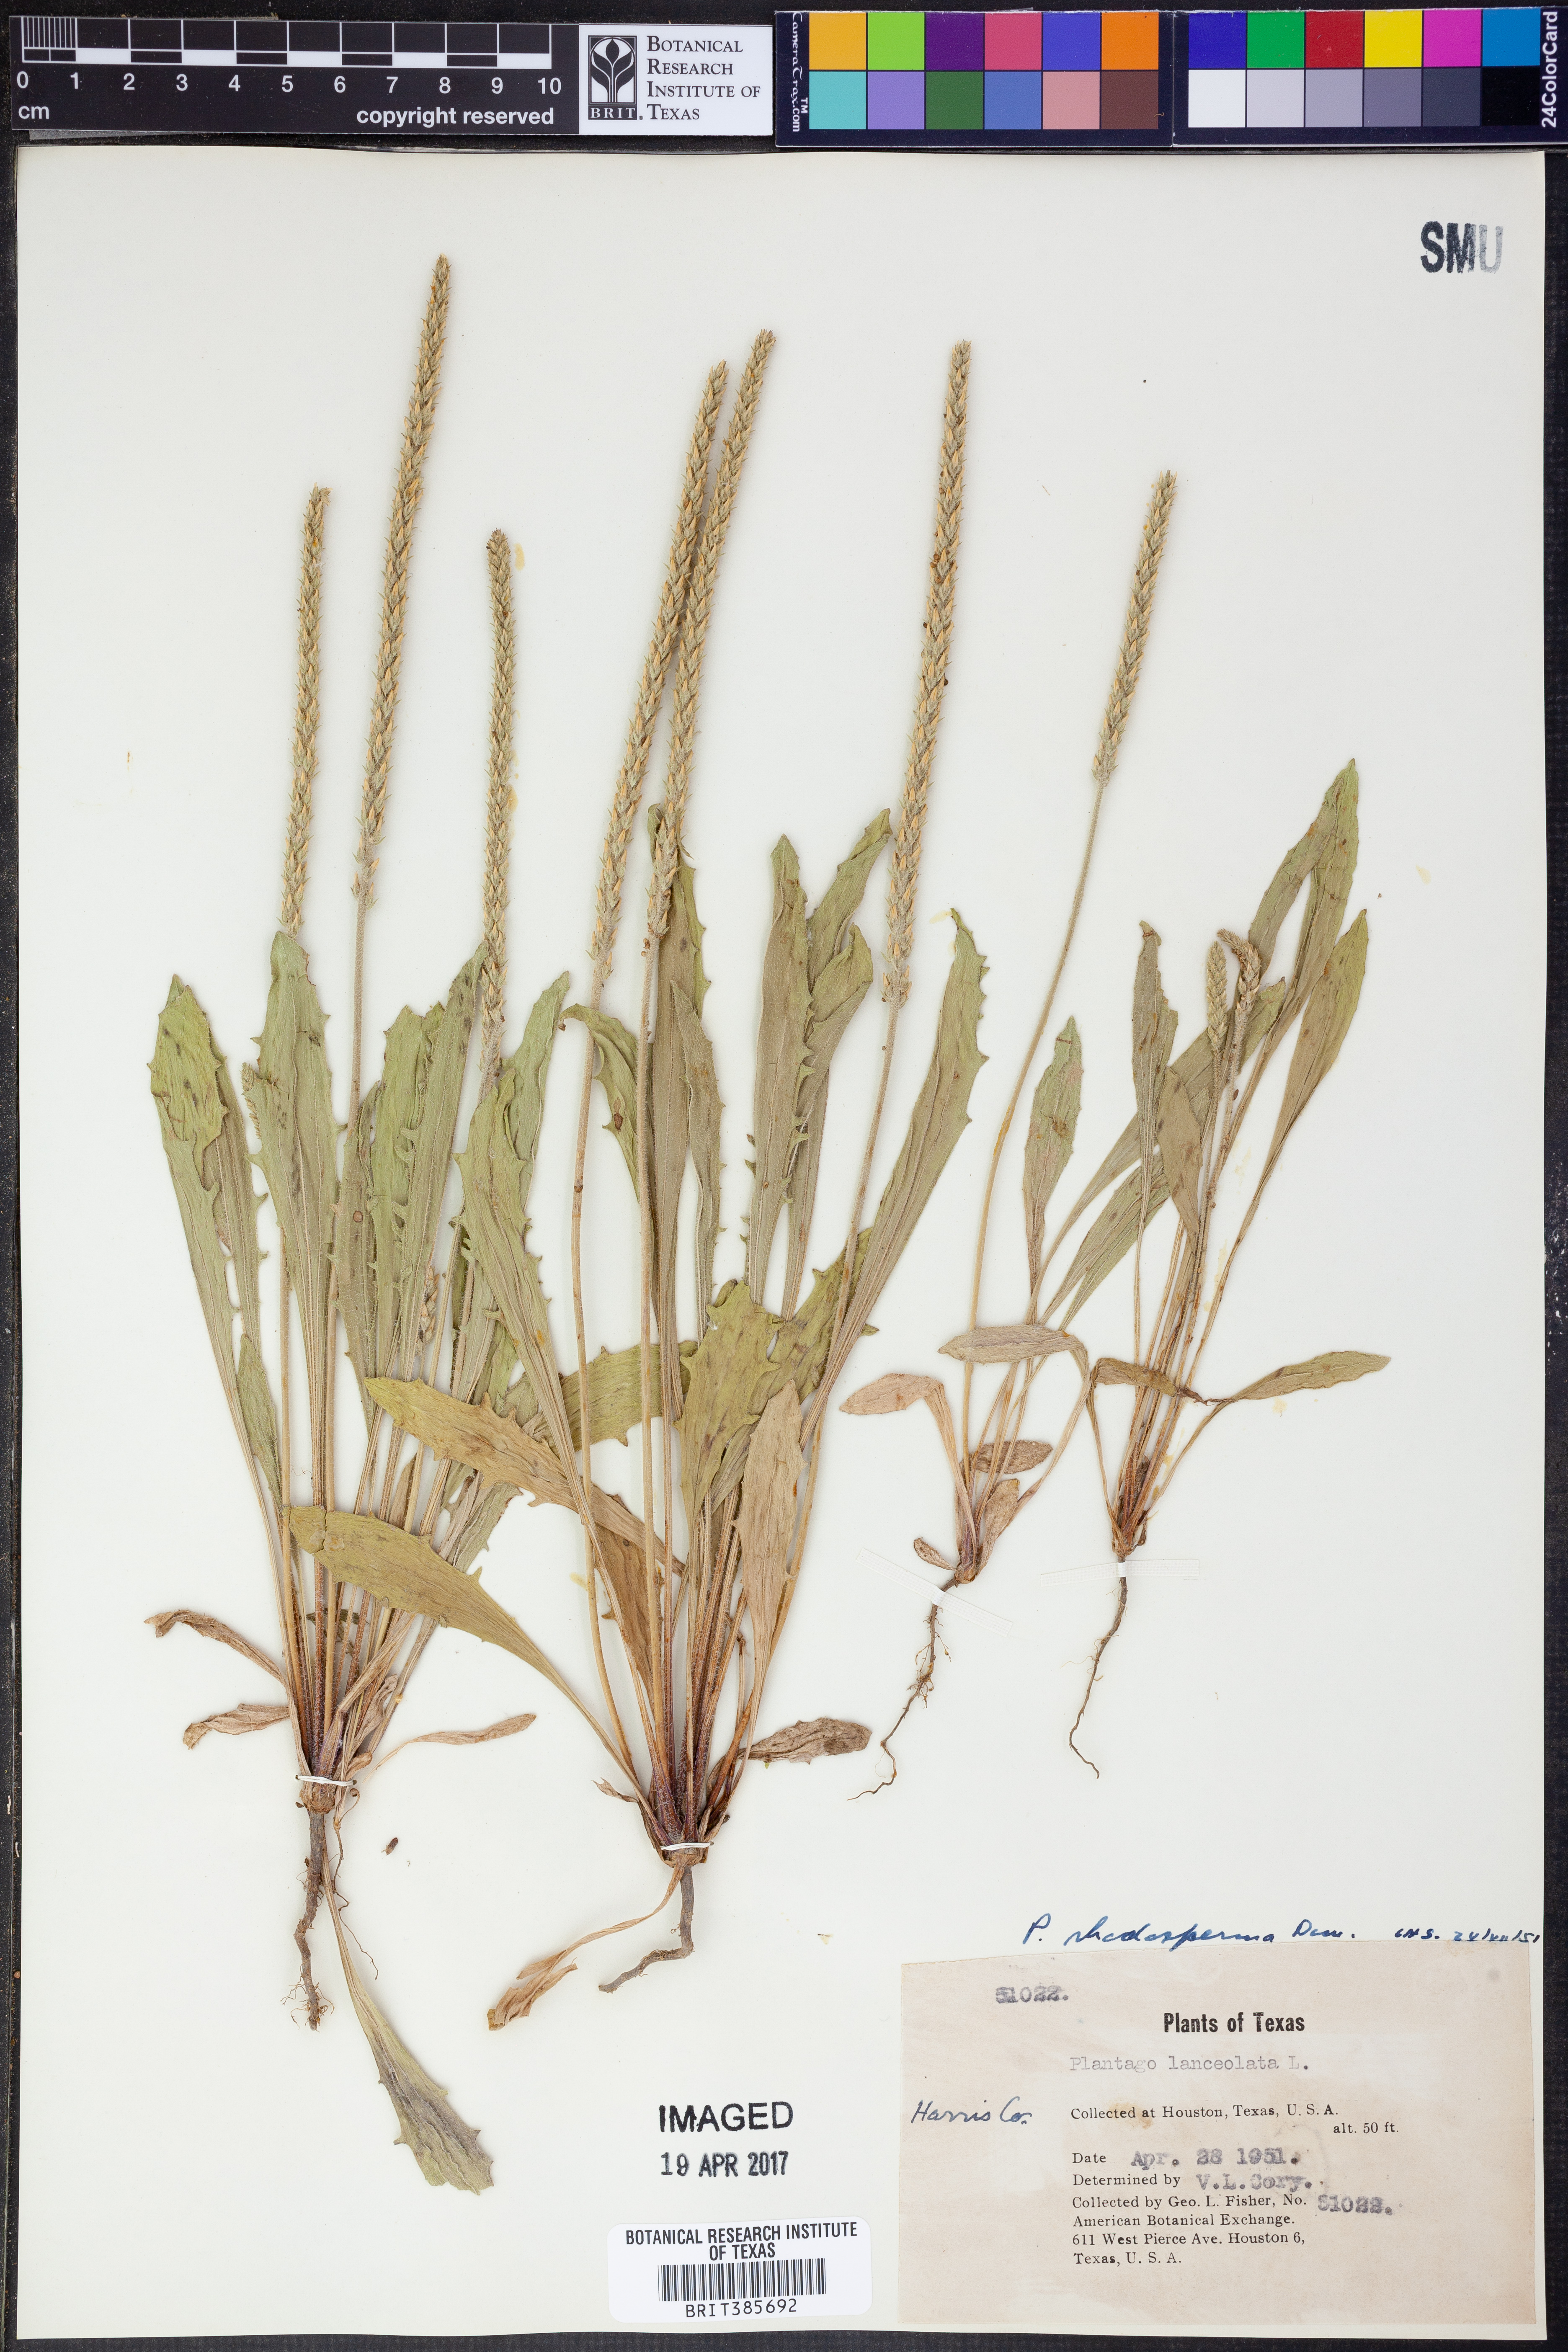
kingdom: Plantae
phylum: Tracheophyta
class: Magnoliopsida
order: Lamiales
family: Plantaginaceae
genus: Plantago
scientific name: Plantago rhodosperma
